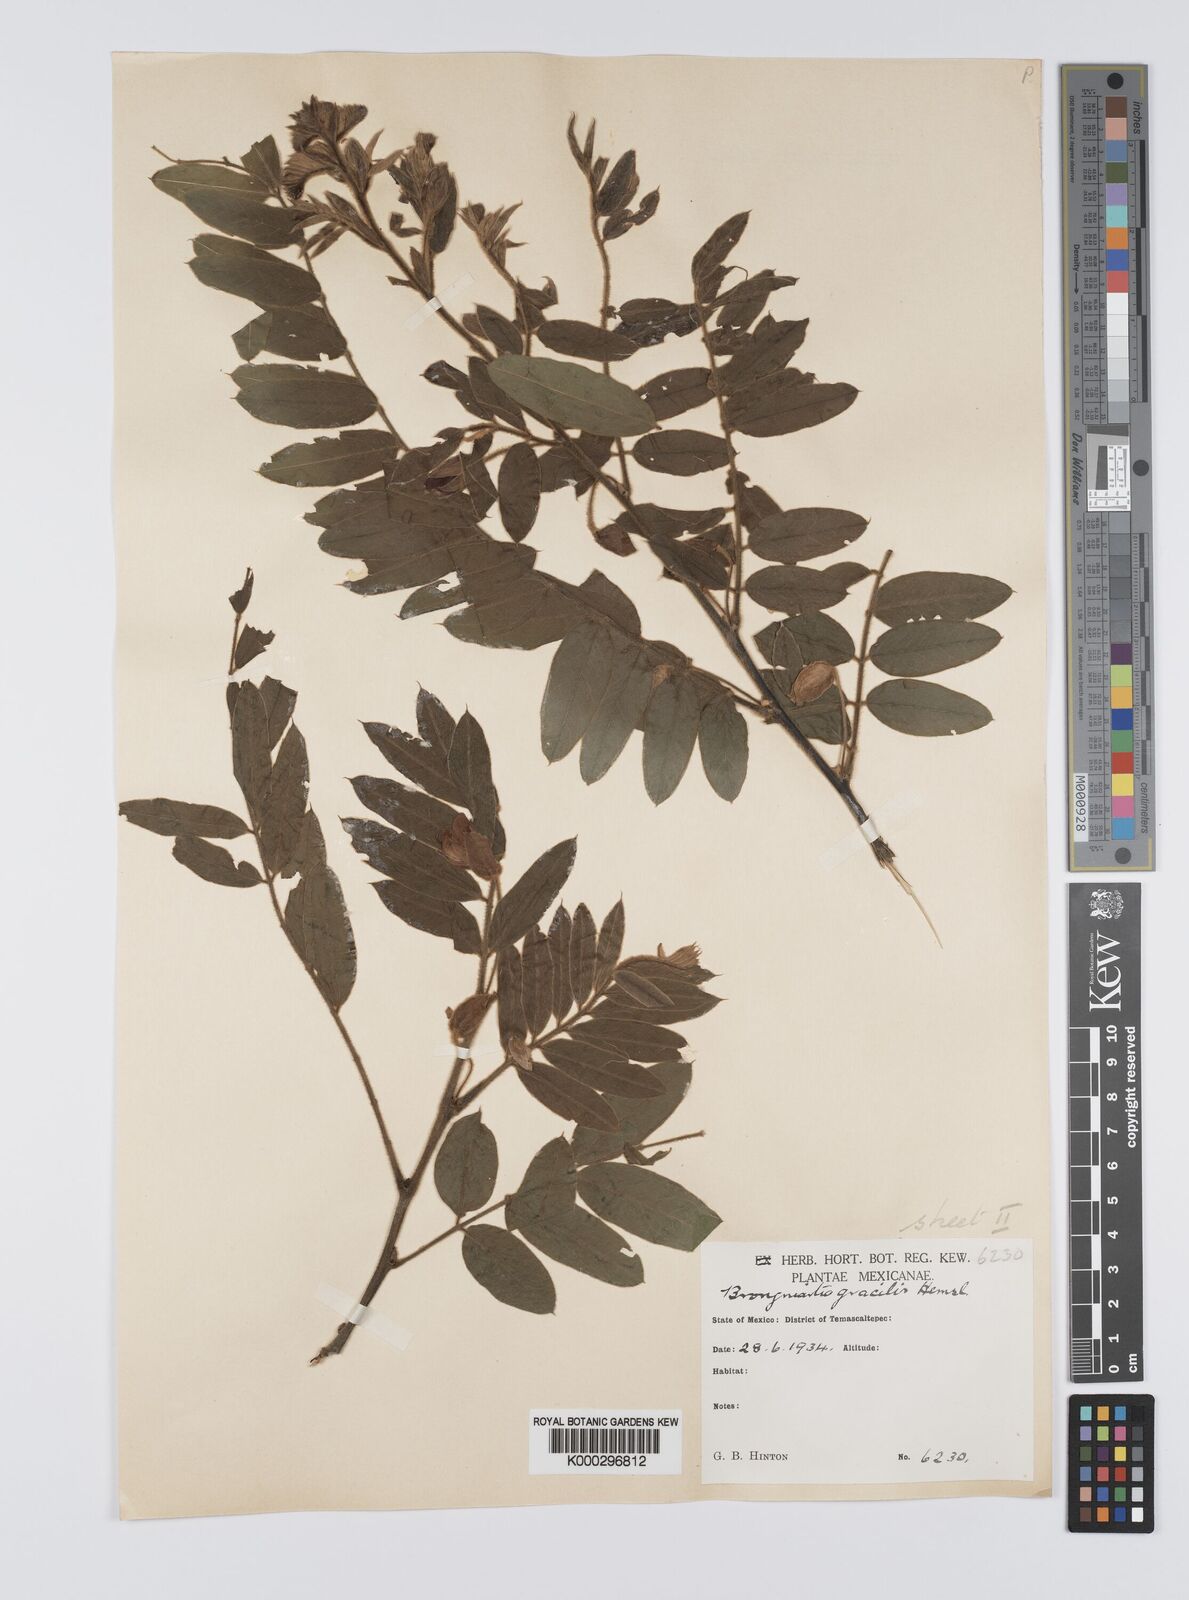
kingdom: Plantae
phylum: Tracheophyta
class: Magnoliopsida
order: Fabales
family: Fabaceae
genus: Brongniartia
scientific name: Brongniartia sericea
